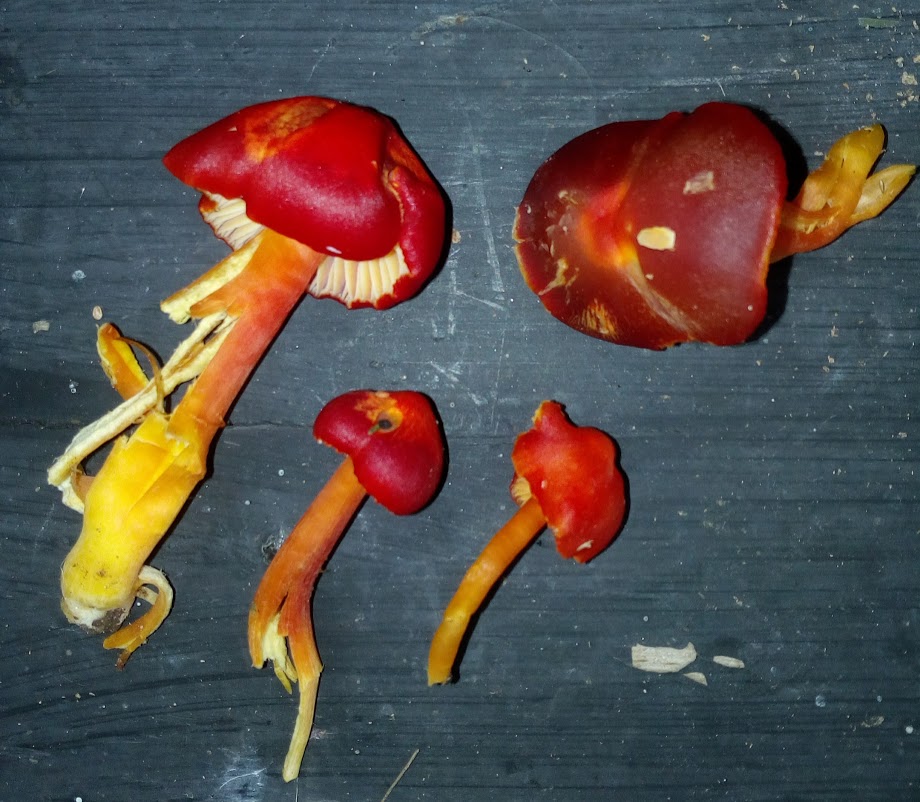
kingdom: Fungi
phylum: Basidiomycota
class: Agaricomycetes
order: Agaricales
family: Hygrophoraceae
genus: Hygrocybe
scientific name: Hygrocybe coccinea
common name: cinnober-vokshat
